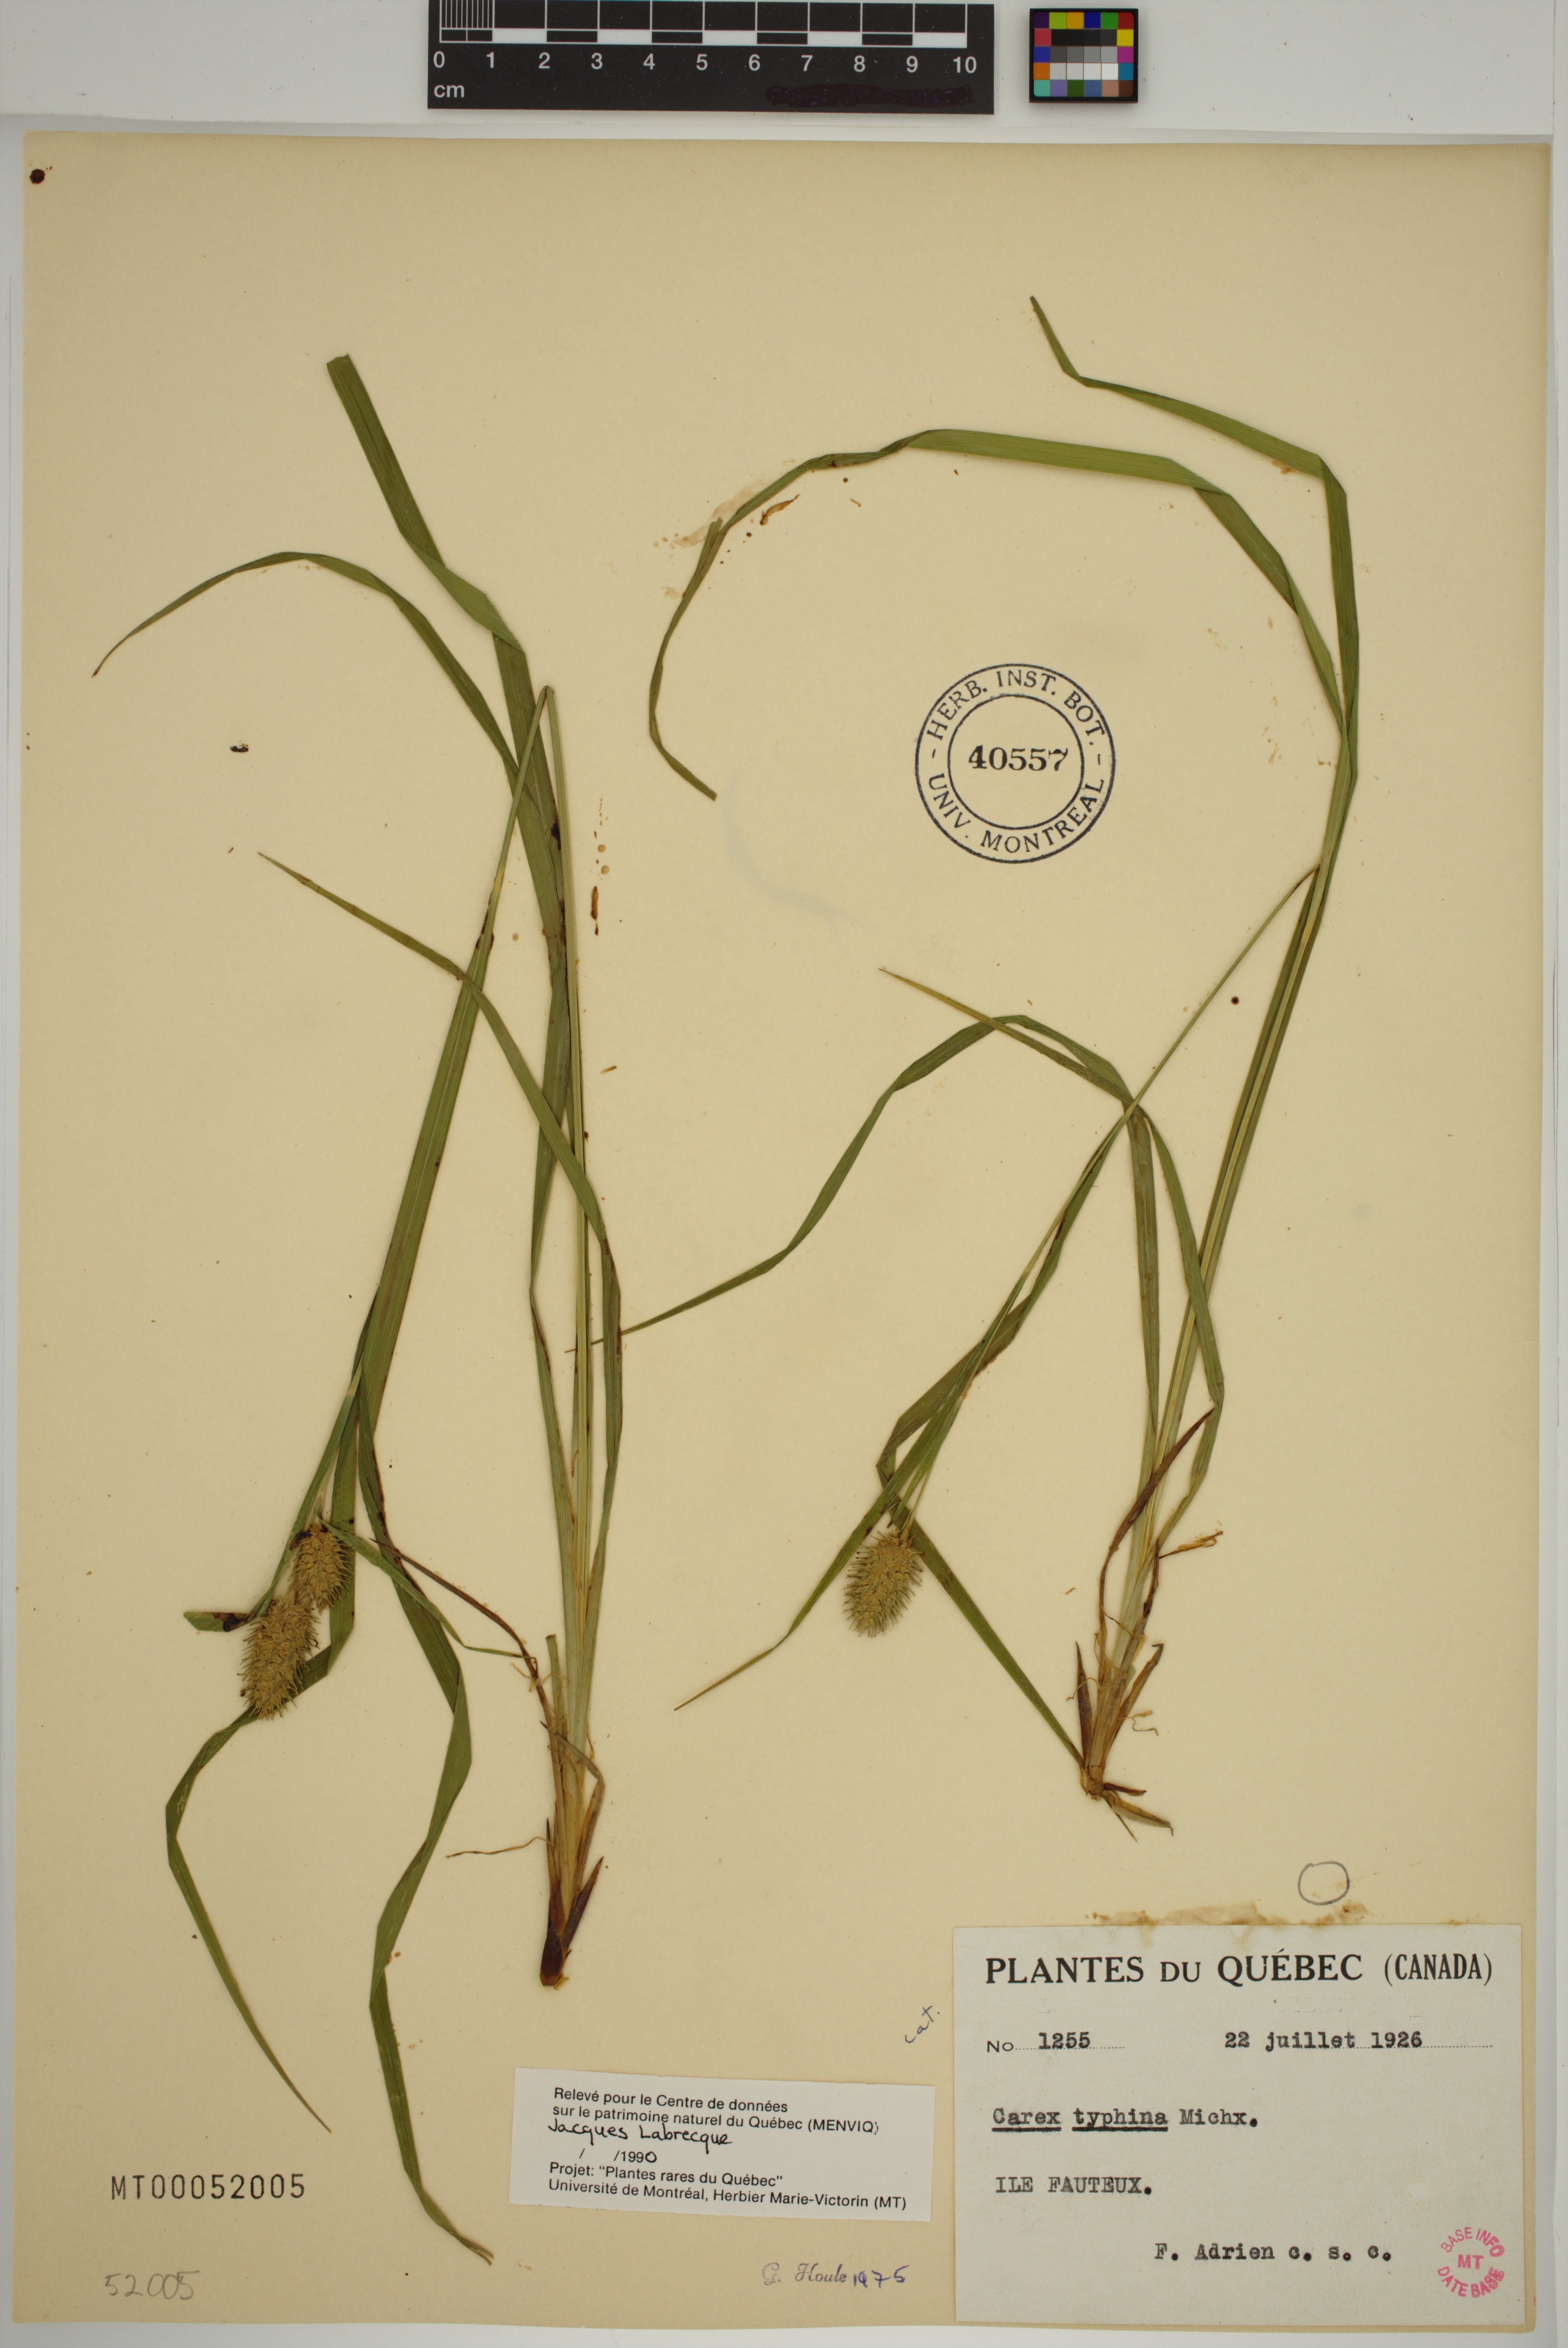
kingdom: Plantae
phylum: Tracheophyta
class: Liliopsida
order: Poales
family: Cyperaceae
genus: Carex
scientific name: Carex typhina
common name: Cattail sedge
